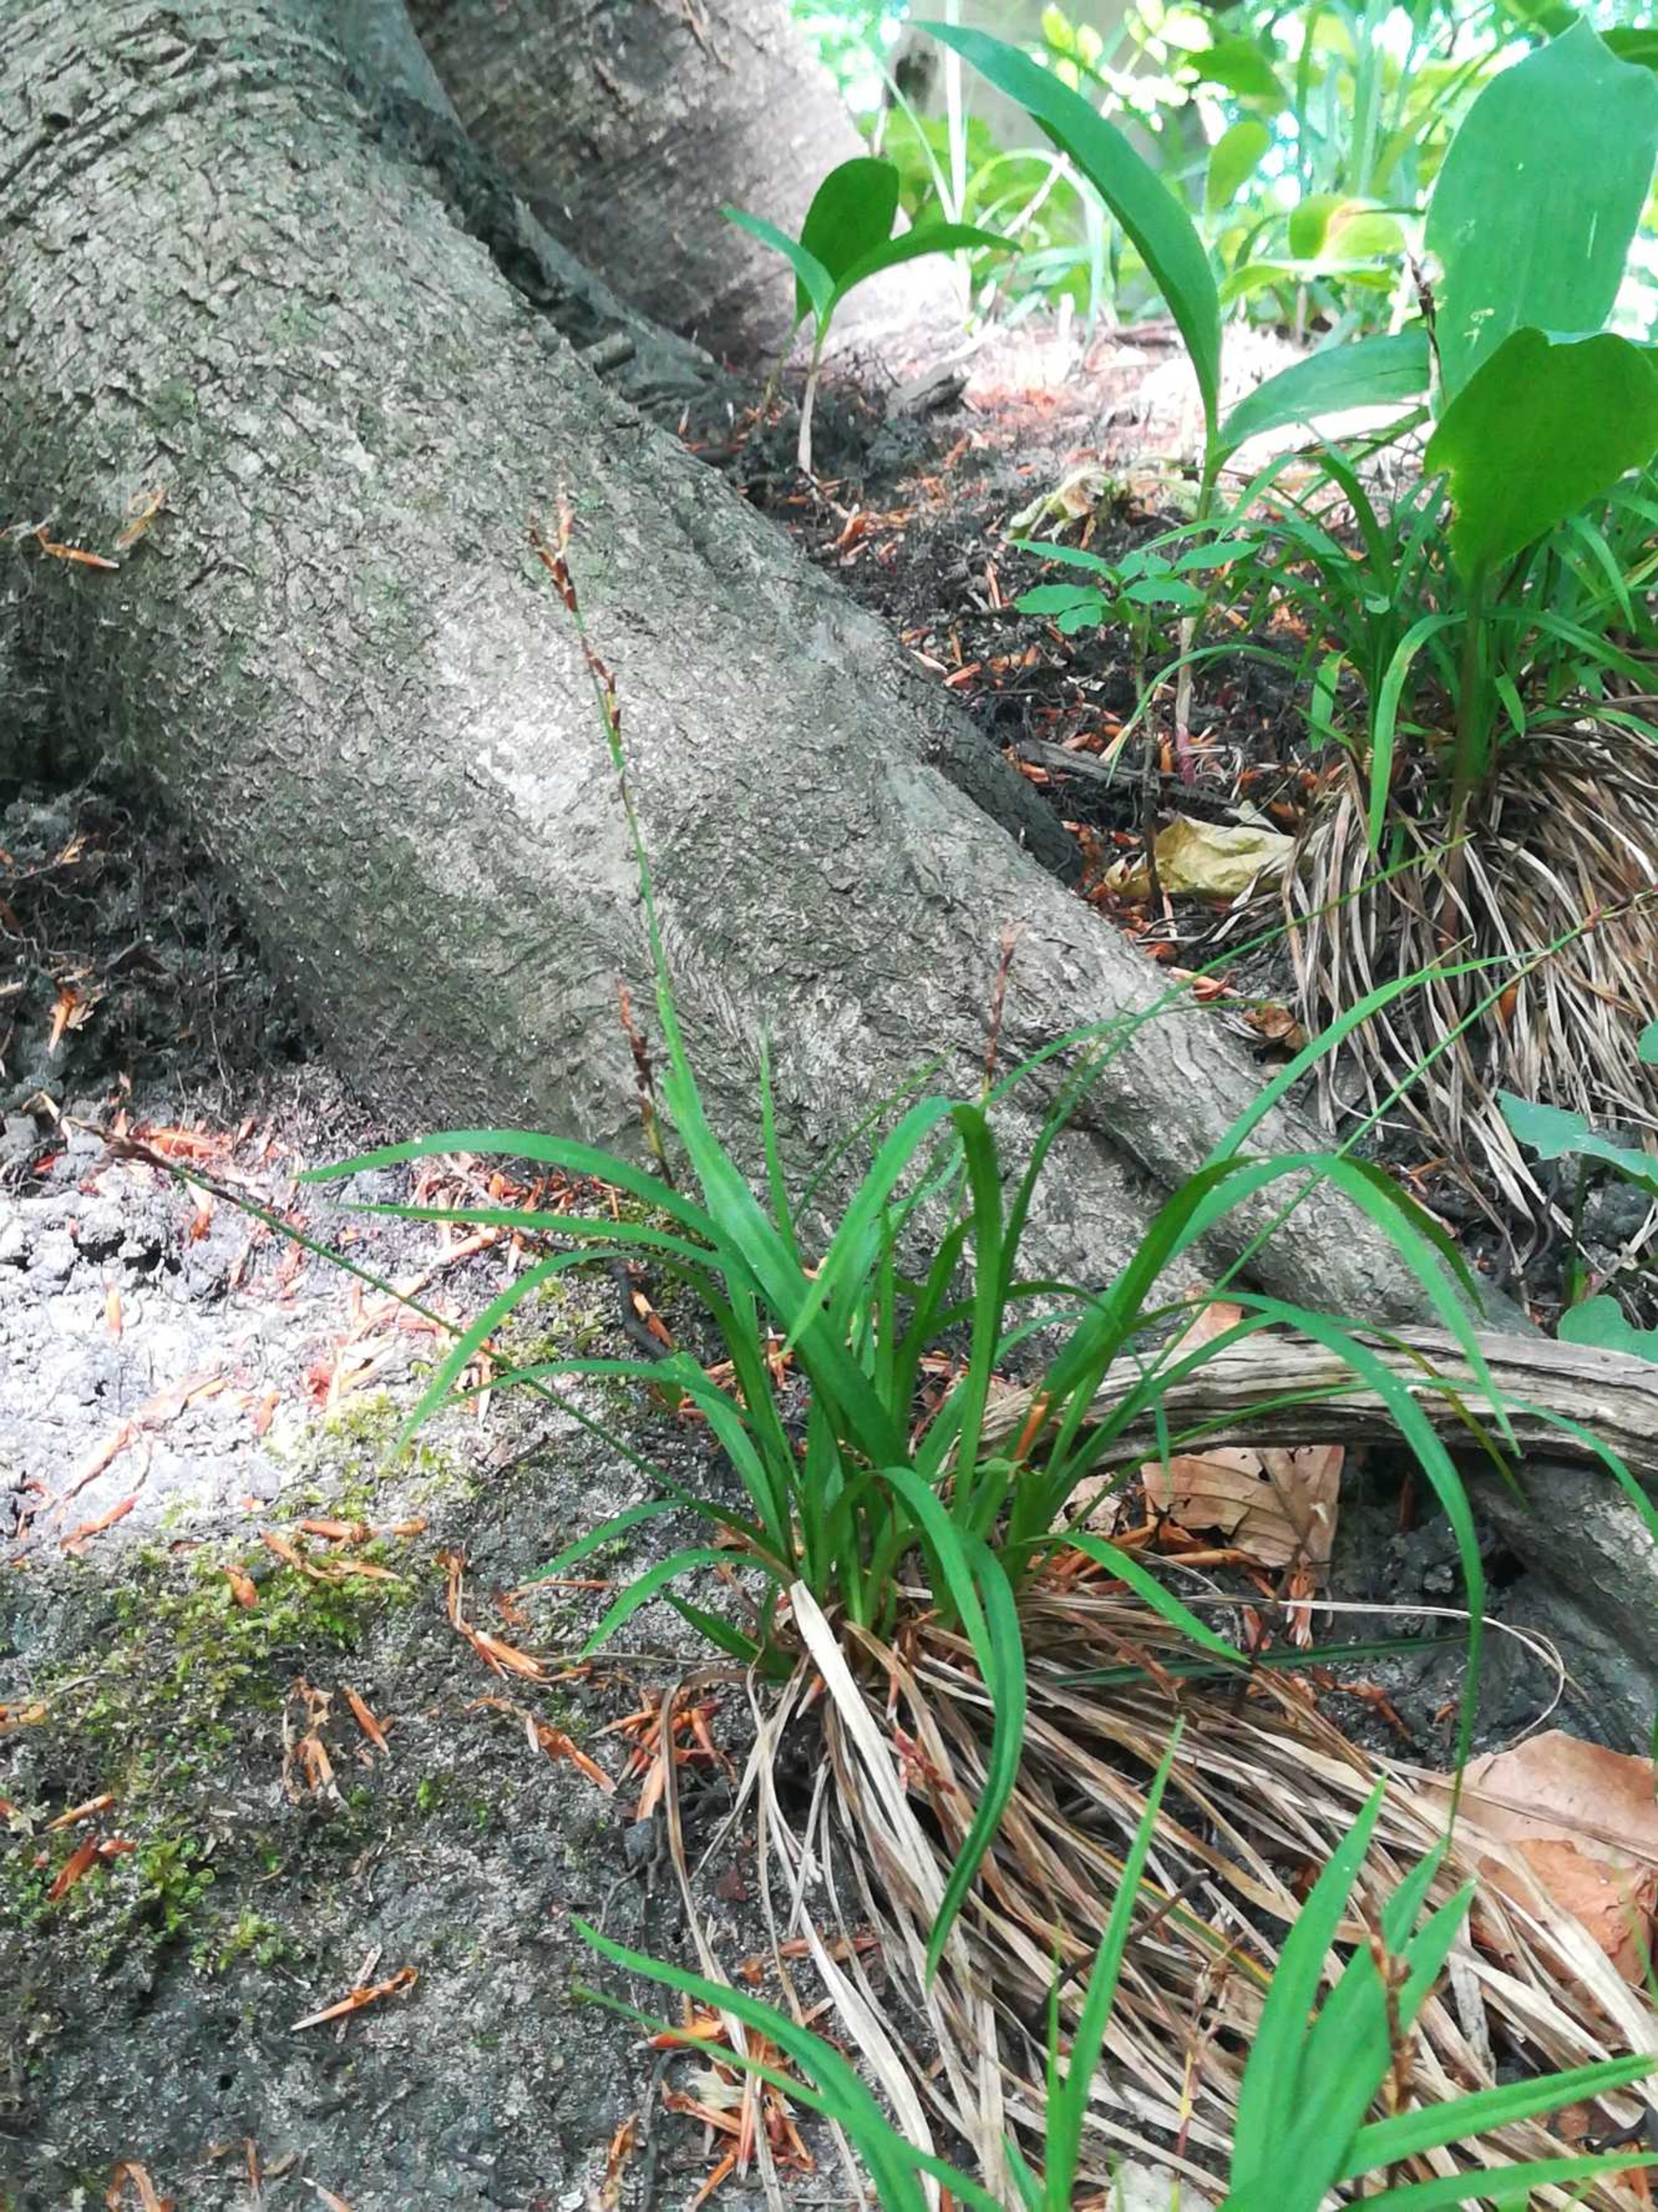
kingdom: Plantae
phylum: Tracheophyta
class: Liliopsida
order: Poales
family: Cyperaceae
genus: Carex
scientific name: Carex digitata
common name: Finger-star
